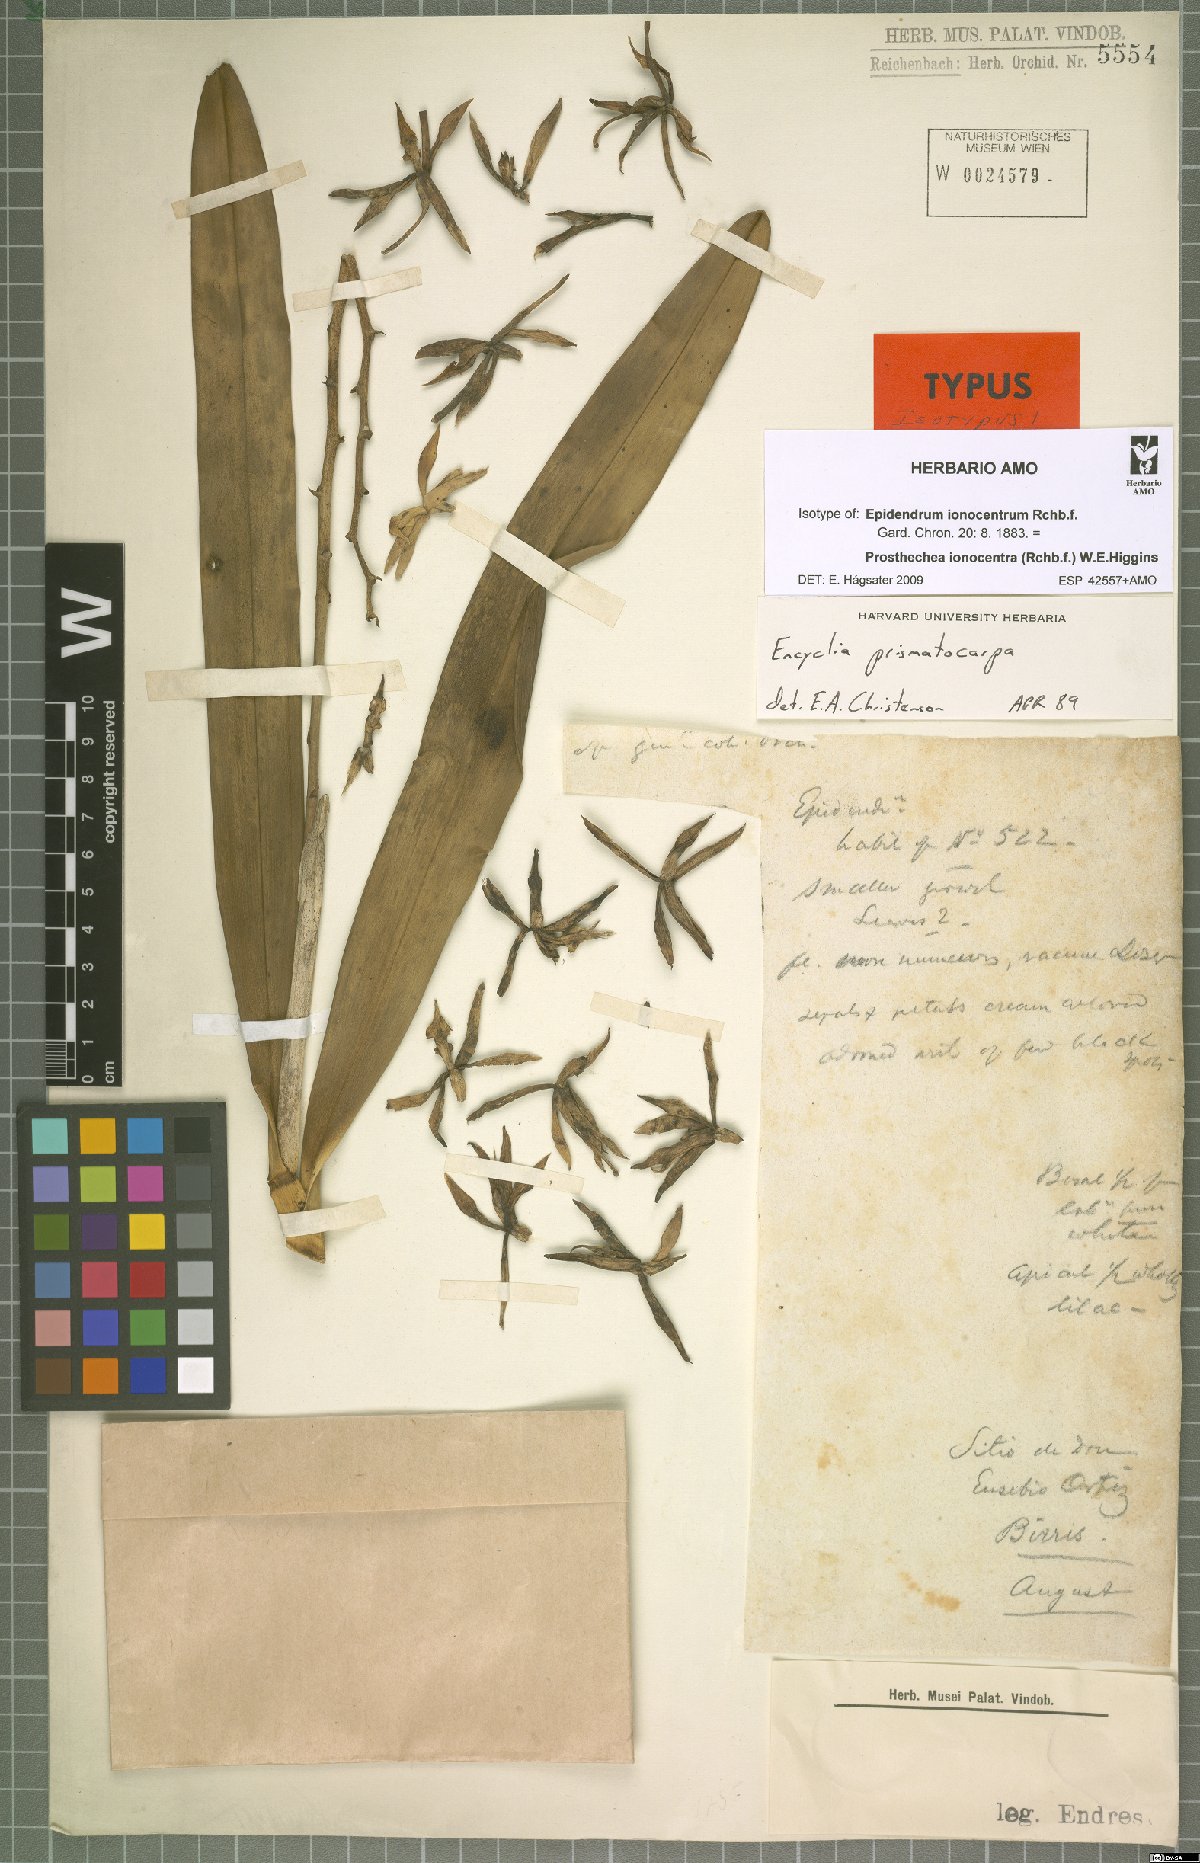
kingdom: Plantae
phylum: Tracheophyta
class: Liliopsida
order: Asparagales
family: Orchidaceae
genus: Prosthechea
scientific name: Prosthechea ionocentra
